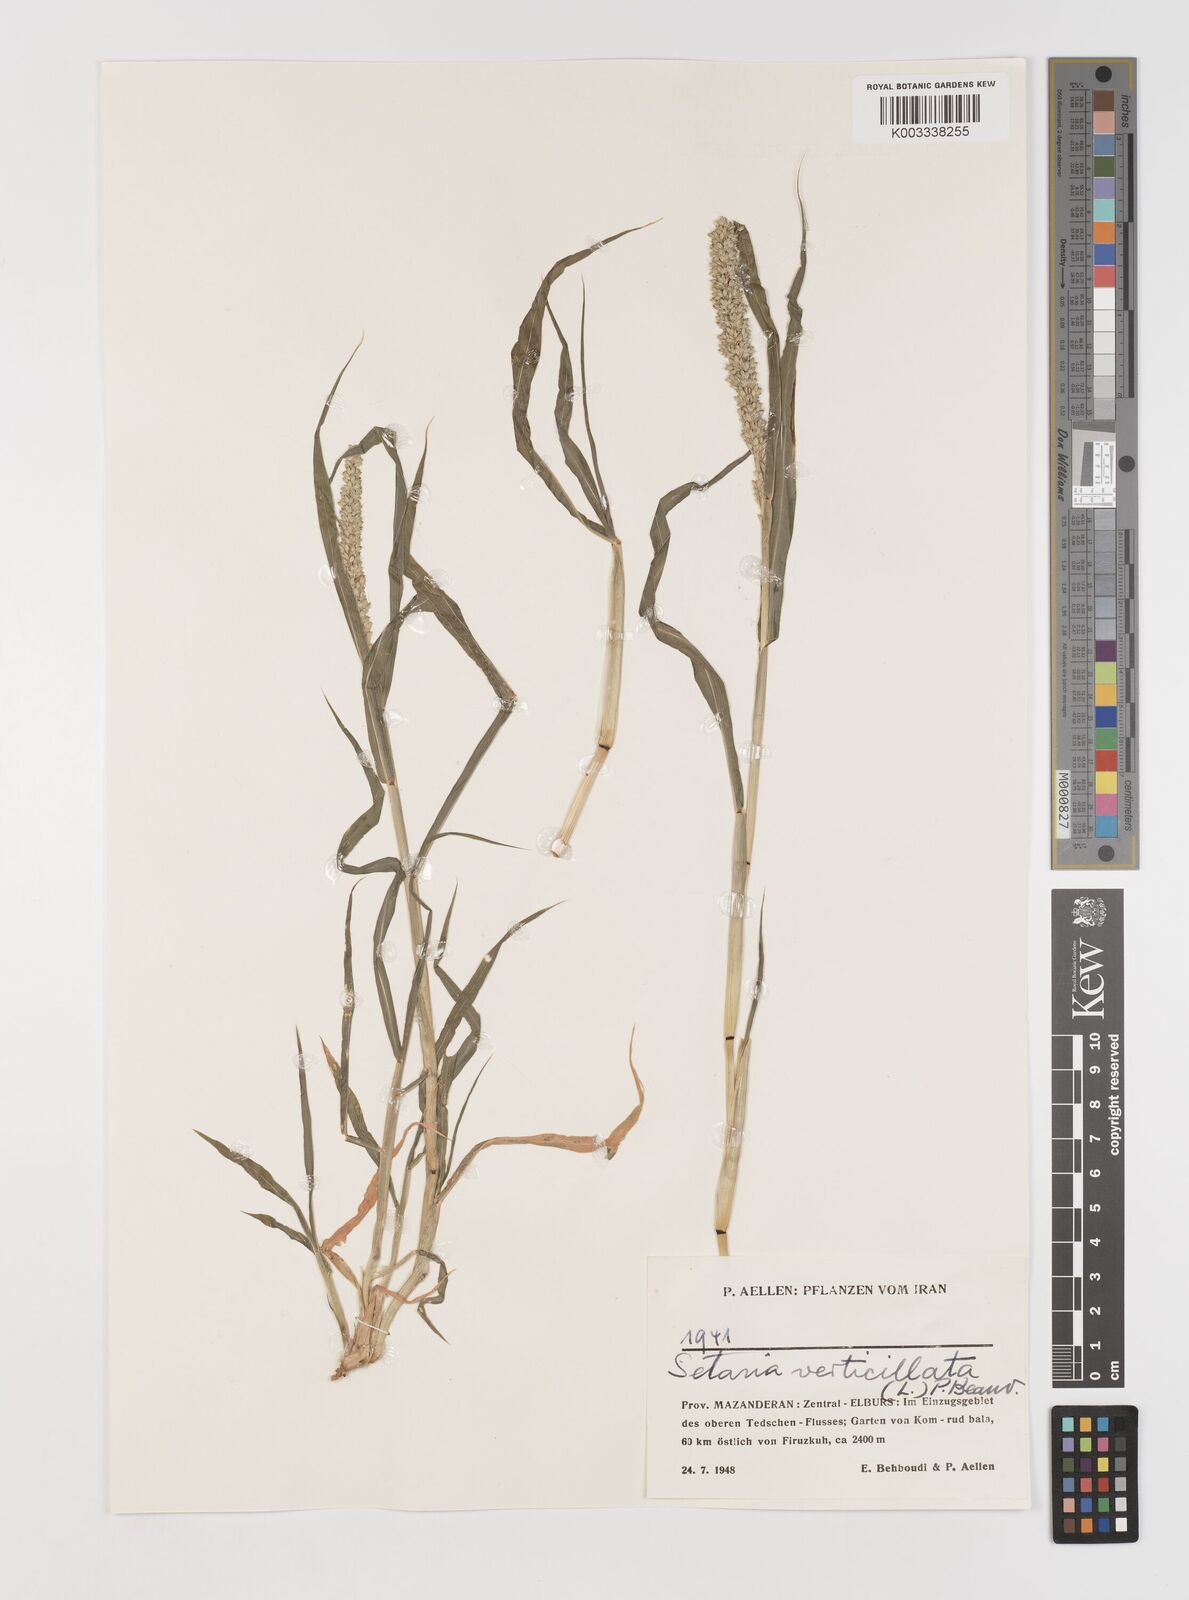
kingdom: Plantae
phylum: Tracheophyta
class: Liliopsida
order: Poales
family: Poaceae
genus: Setaria
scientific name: Setaria verticillata
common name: Hooked bristlegrass
